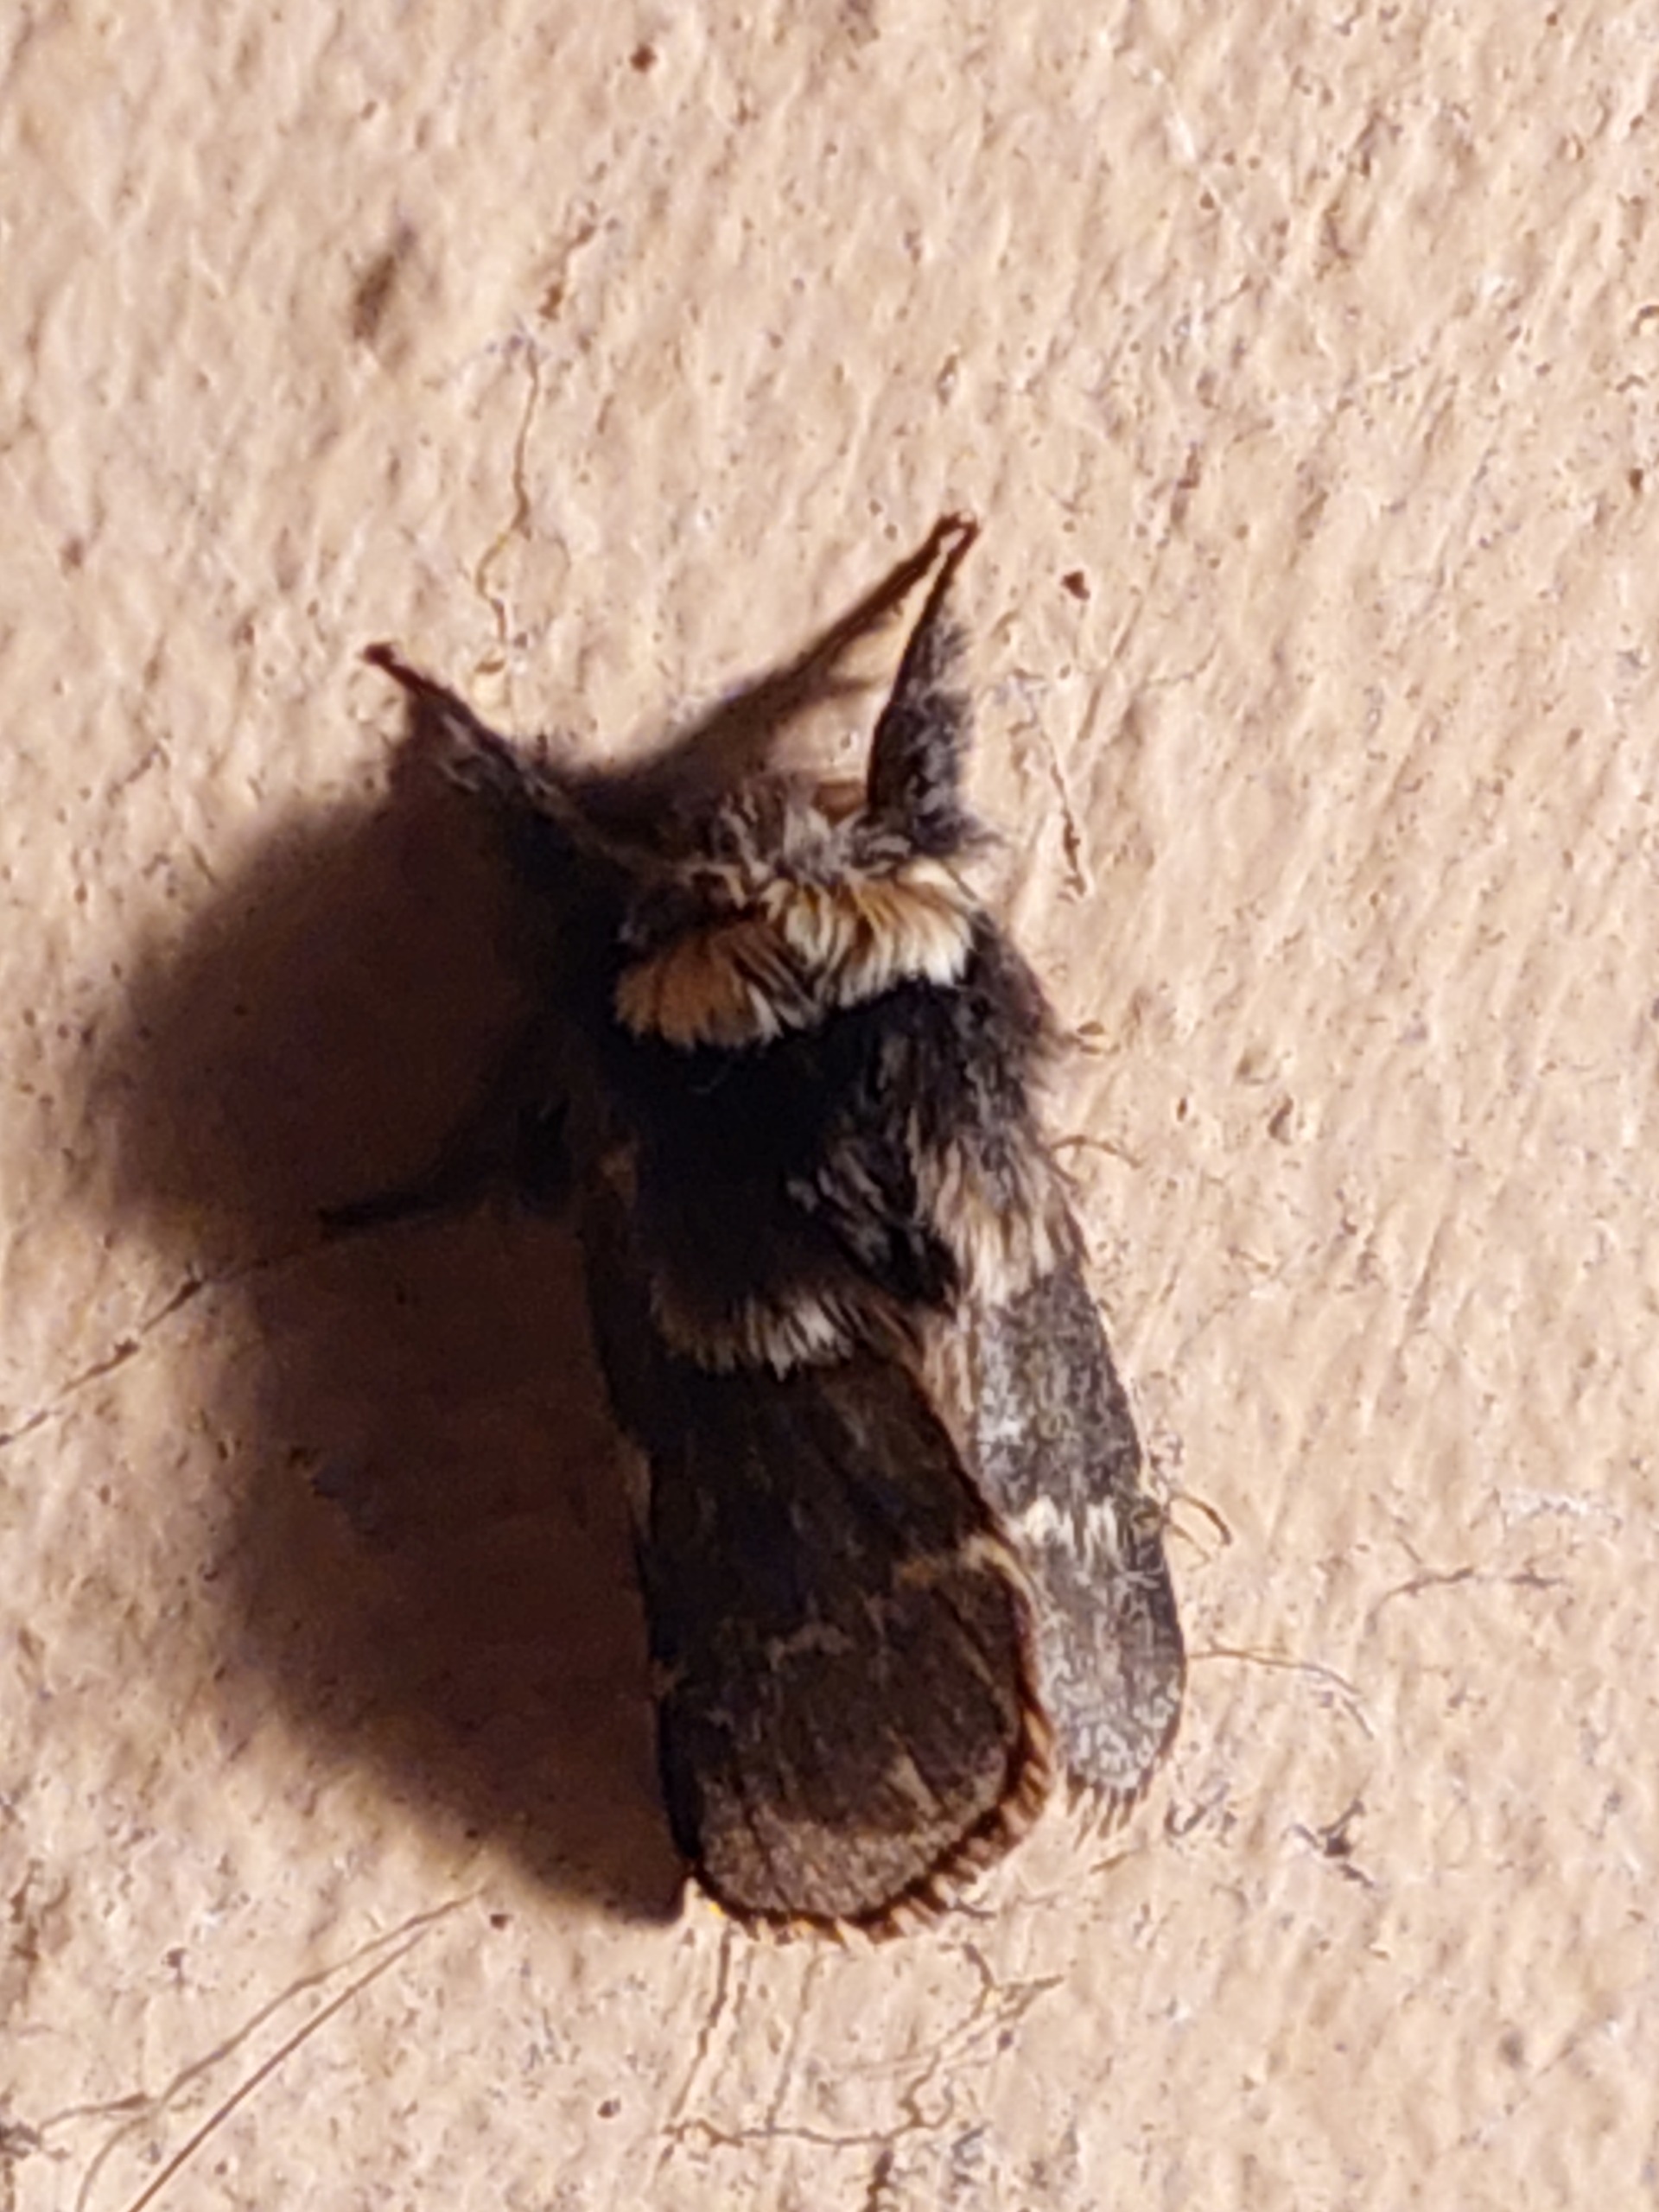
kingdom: Animalia
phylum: Arthropoda
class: Insecta
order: Lepidoptera
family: Lasiocampidae
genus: Poecilocampa
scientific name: Poecilocampa populi
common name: Poppelspinder
